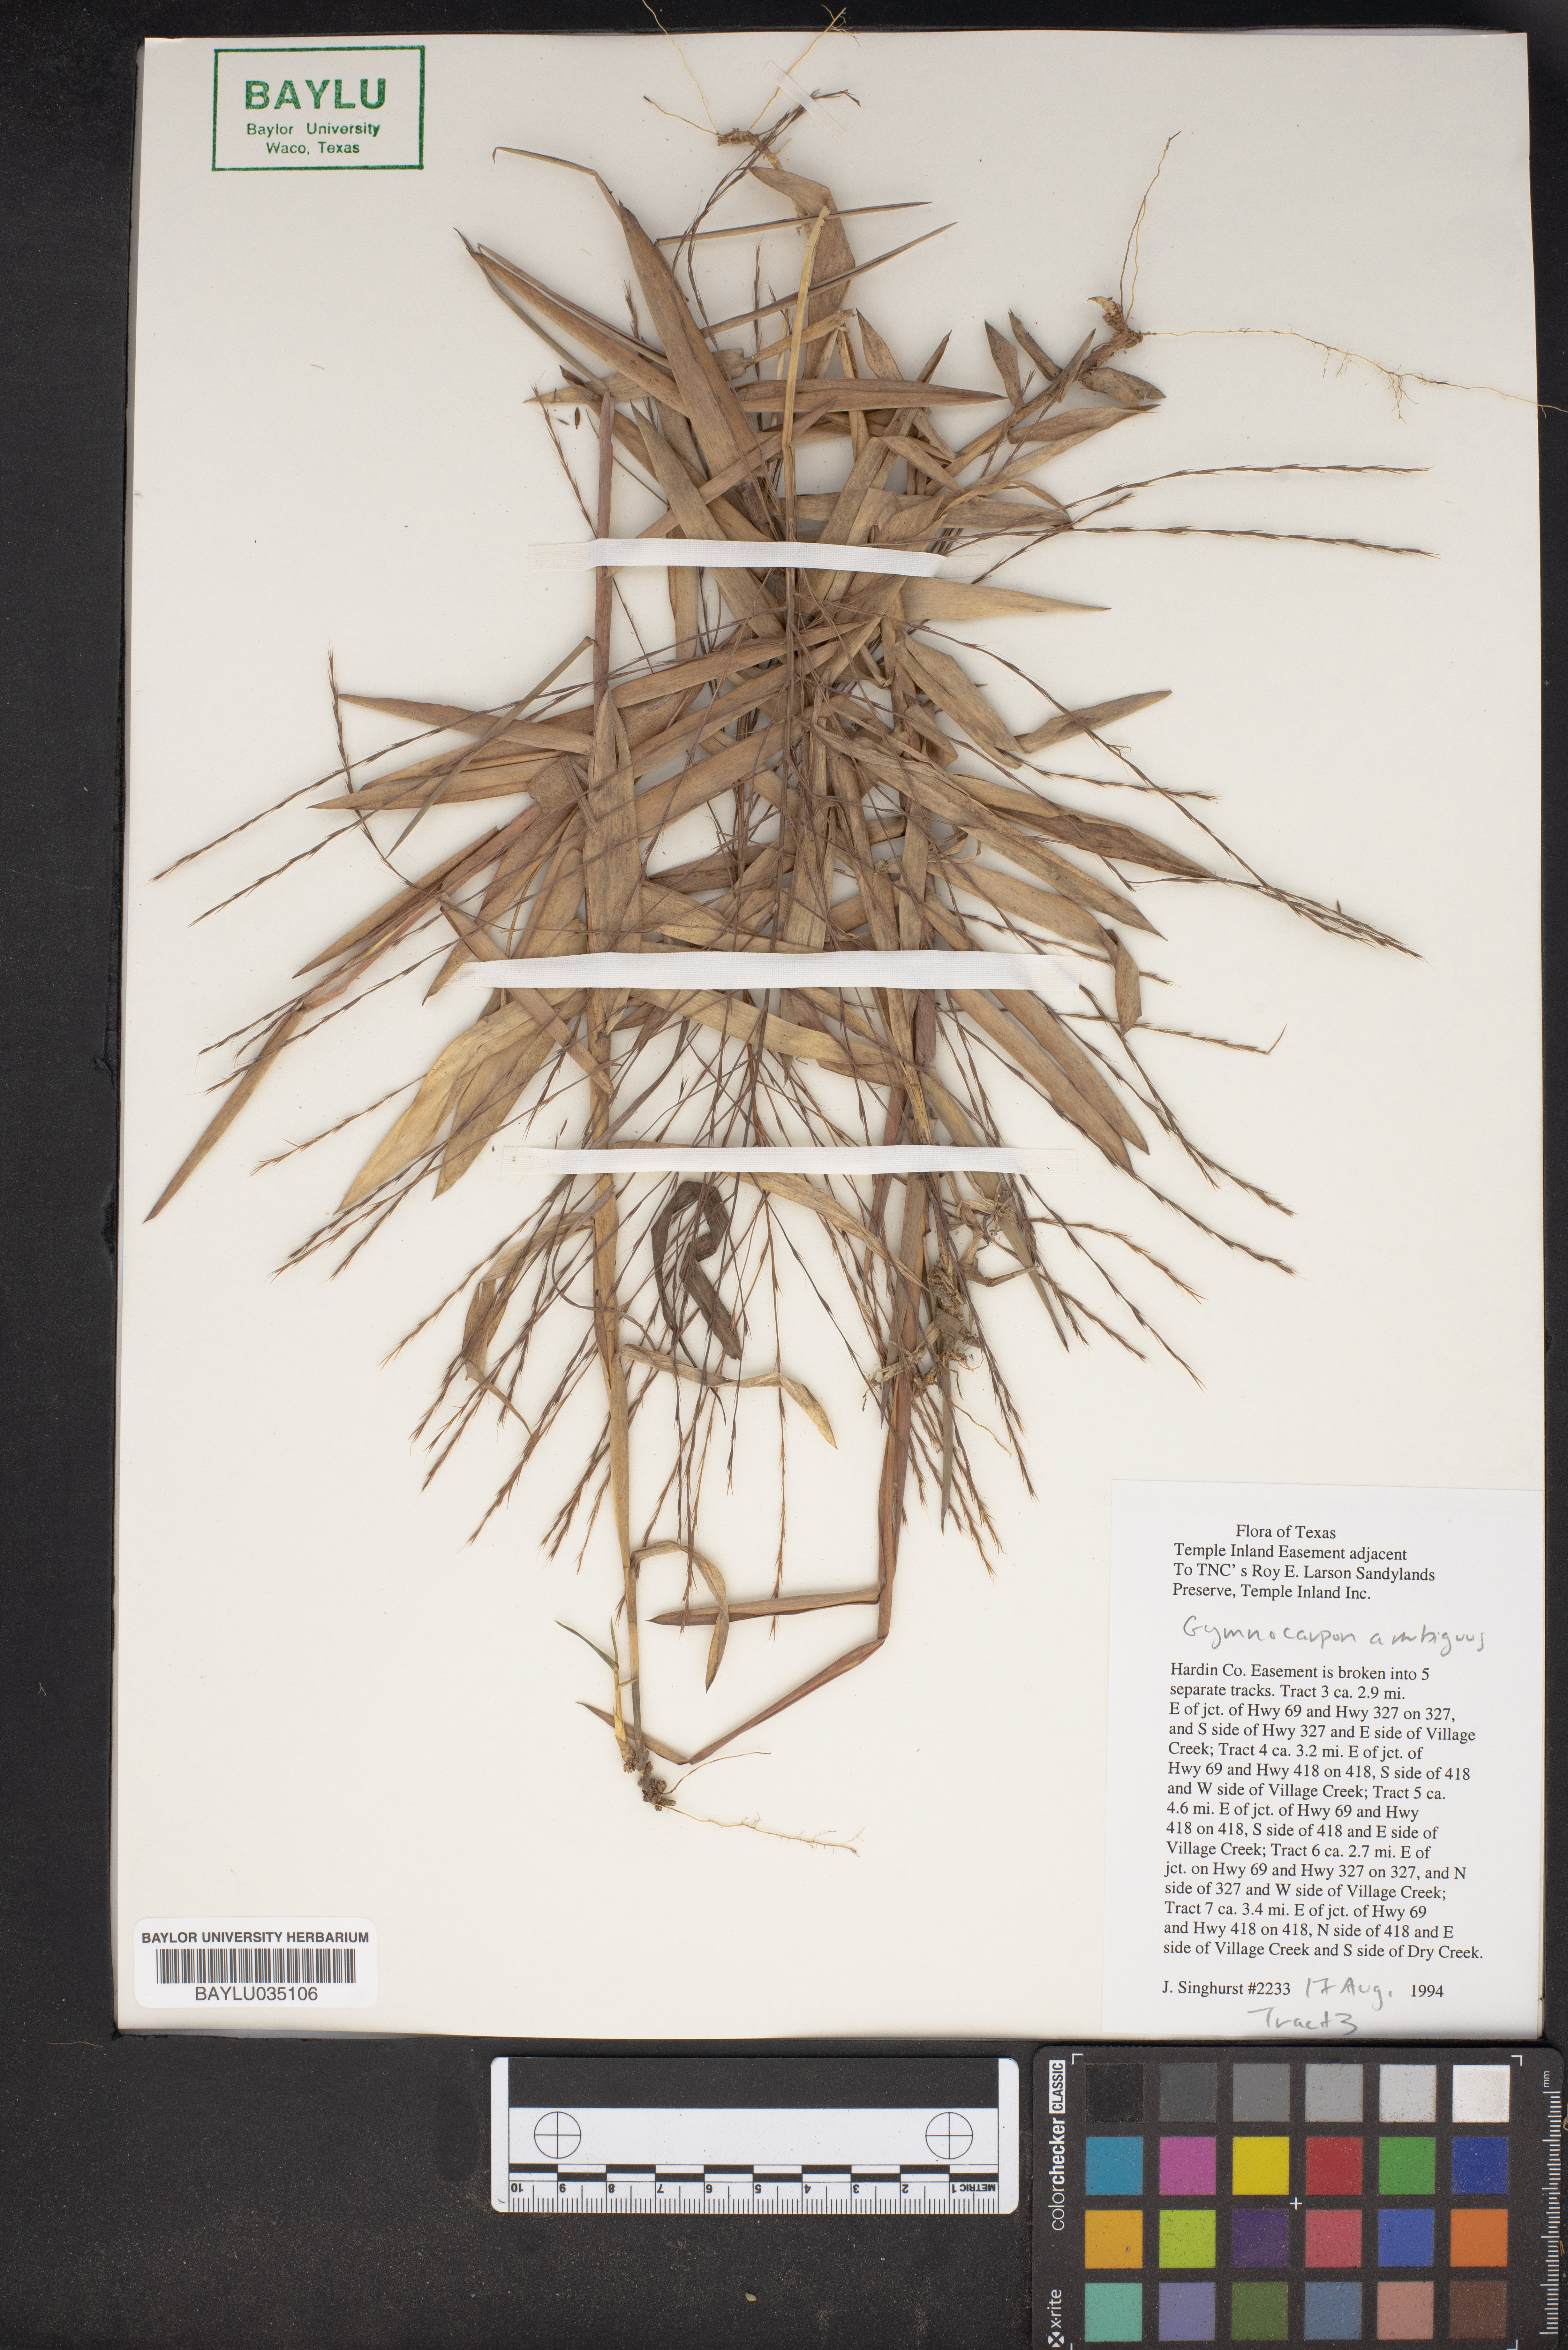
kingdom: Plantae
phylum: Tracheophyta
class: Magnoliopsida
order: Caryophyllales
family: Caryophyllaceae
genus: Gymnocarpon
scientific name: Gymnocarpon
